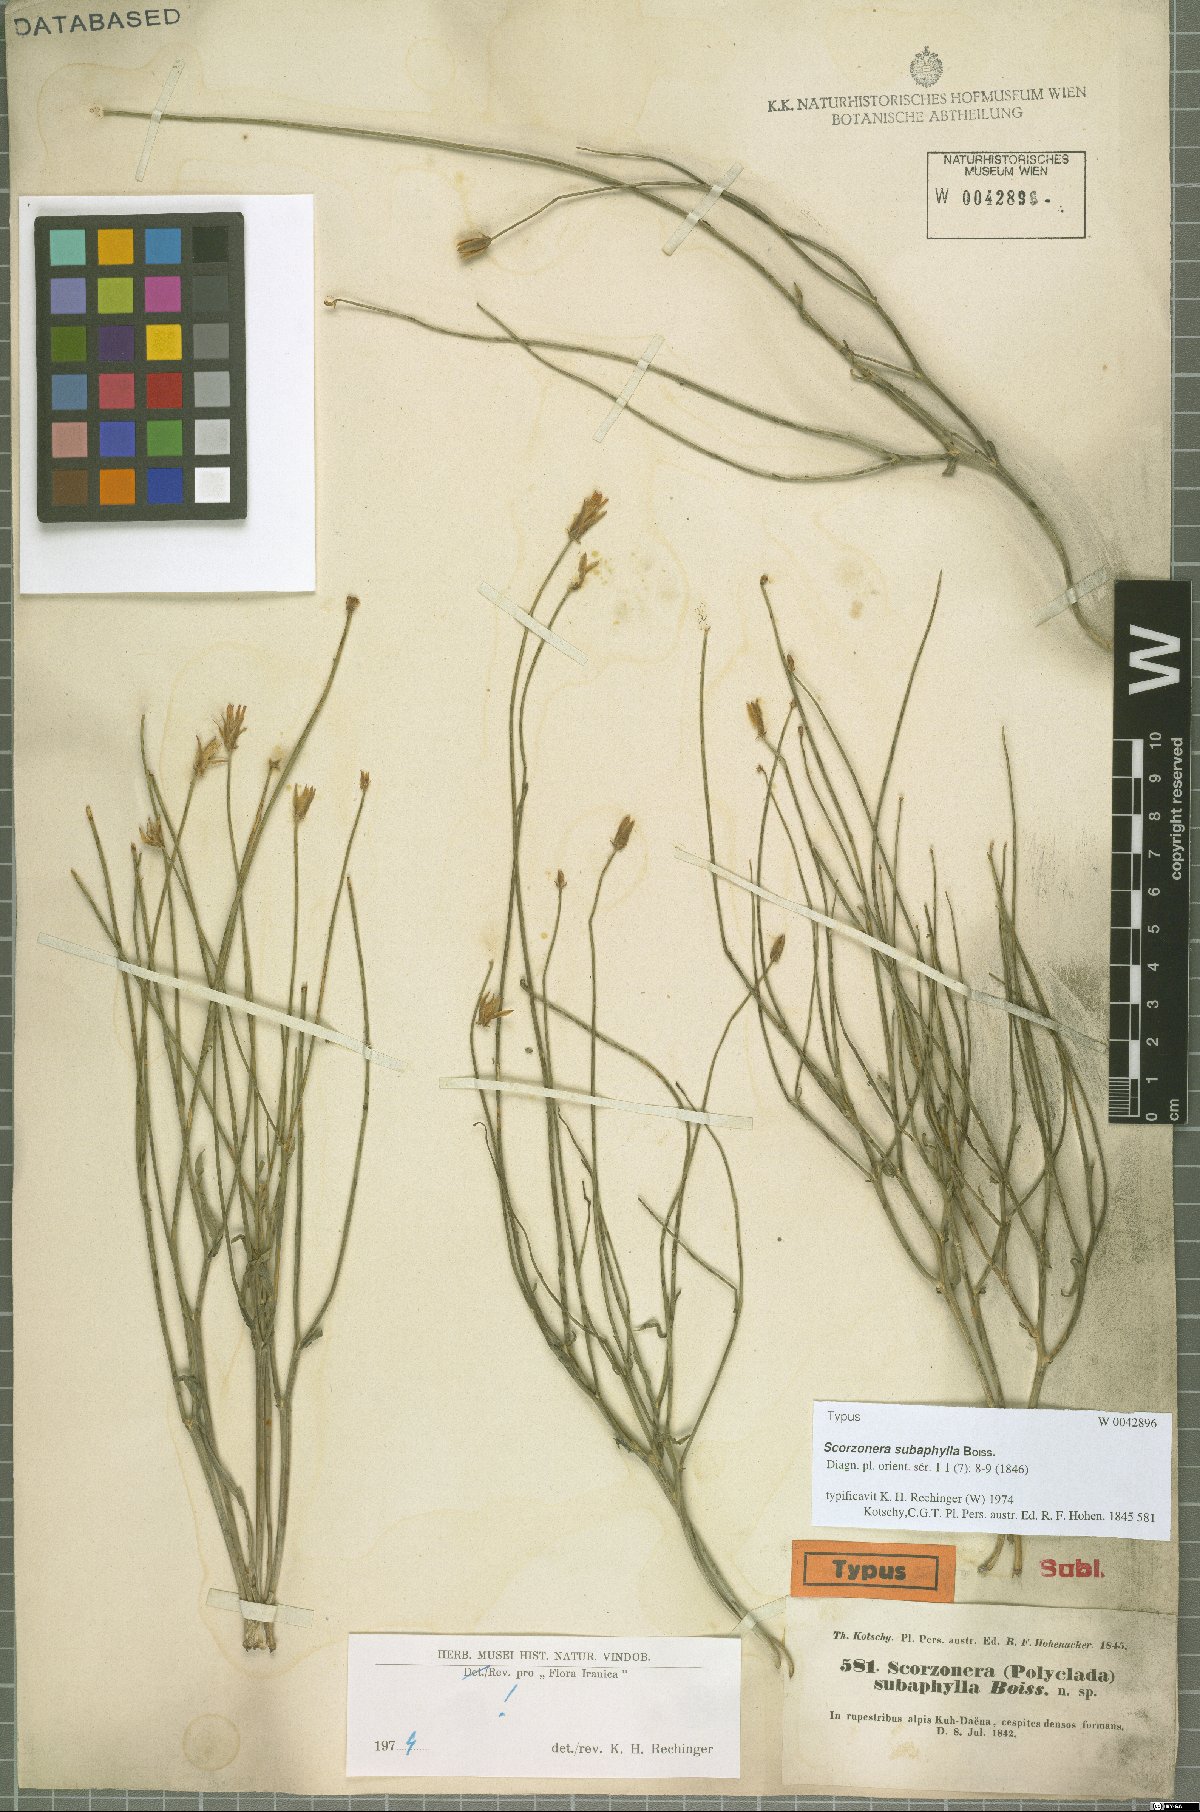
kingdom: Plantae
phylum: Tracheophyta
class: Magnoliopsida
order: Asterales
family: Asteraceae
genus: Scorzonera
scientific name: Scorzonera subaphylla
